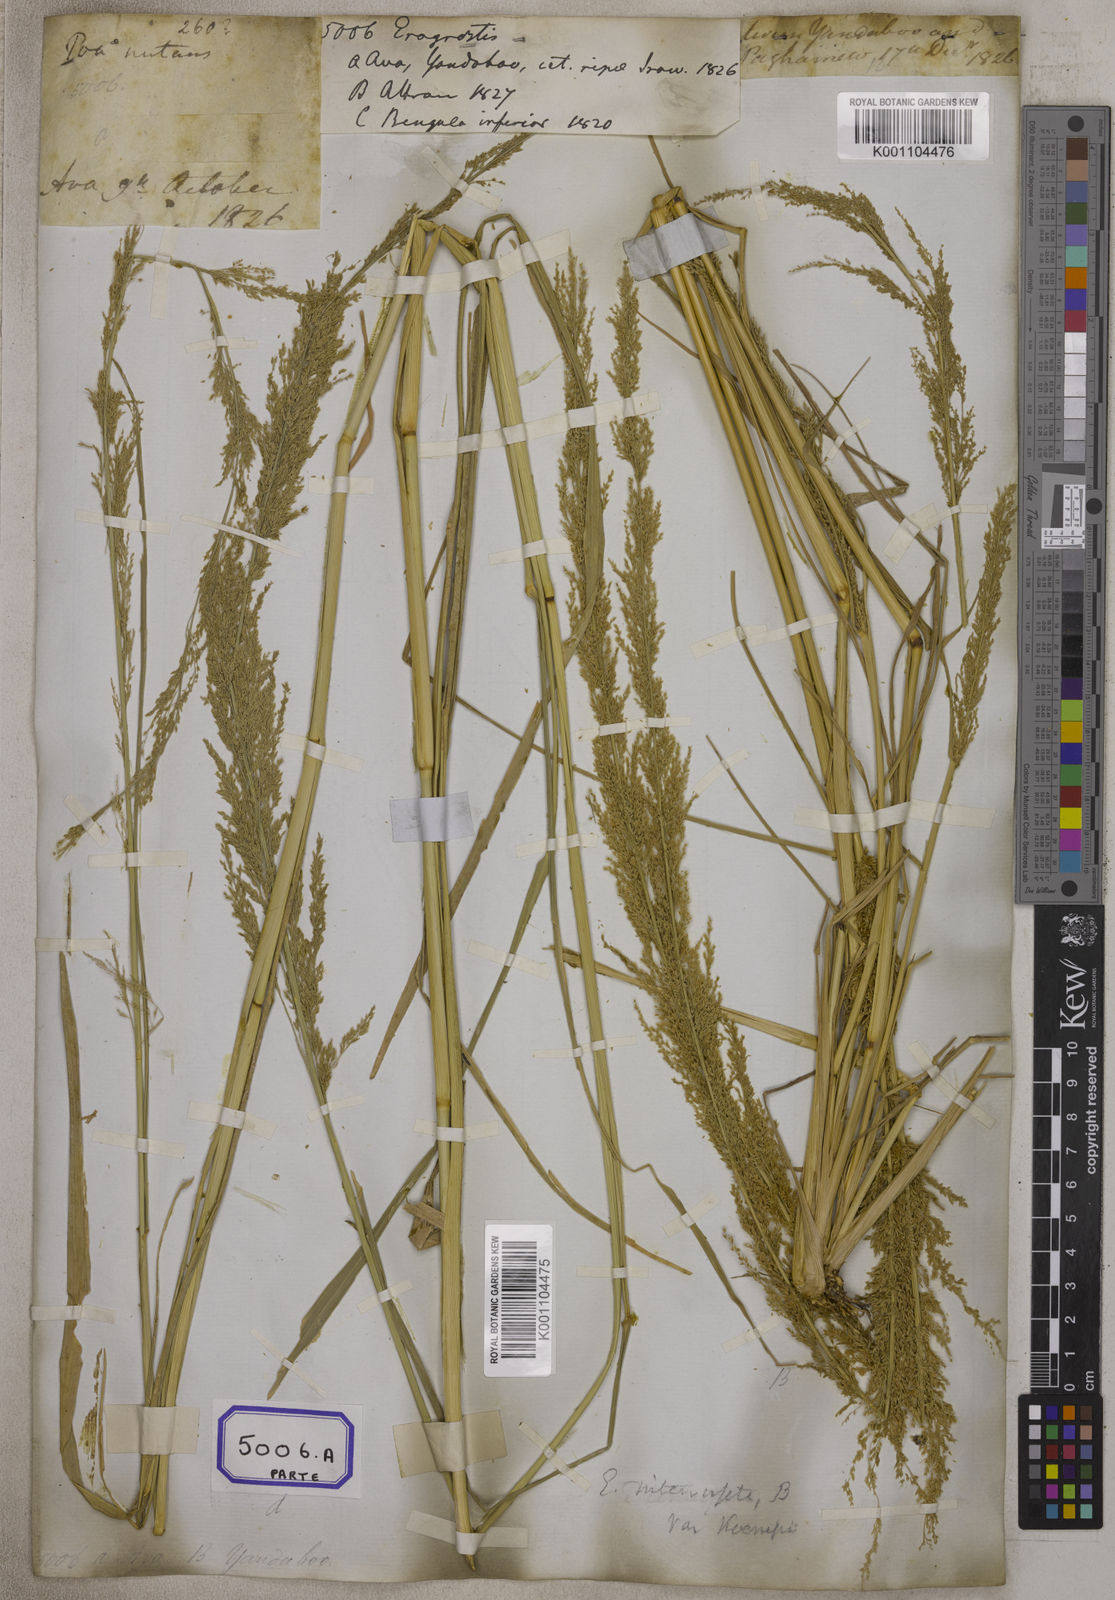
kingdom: Plantae
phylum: Tracheophyta
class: Liliopsida
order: Poales
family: Poaceae
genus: Eragrostis
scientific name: Eragrostis
